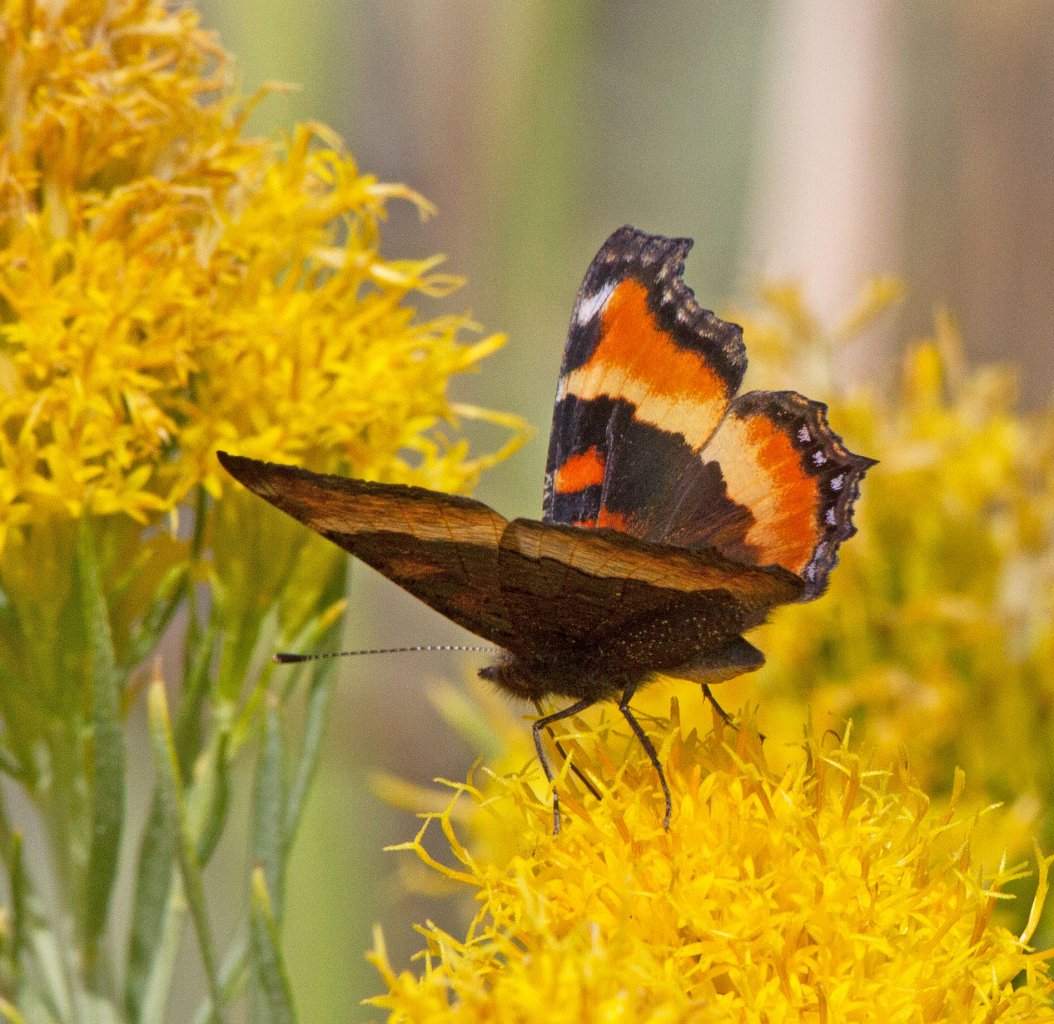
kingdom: Animalia
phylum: Arthropoda
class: Insecta
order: Lepidoptera
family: Nymphalidae
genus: Aglais
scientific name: Aglais milberti
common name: Milbert's Tortoiseshell
